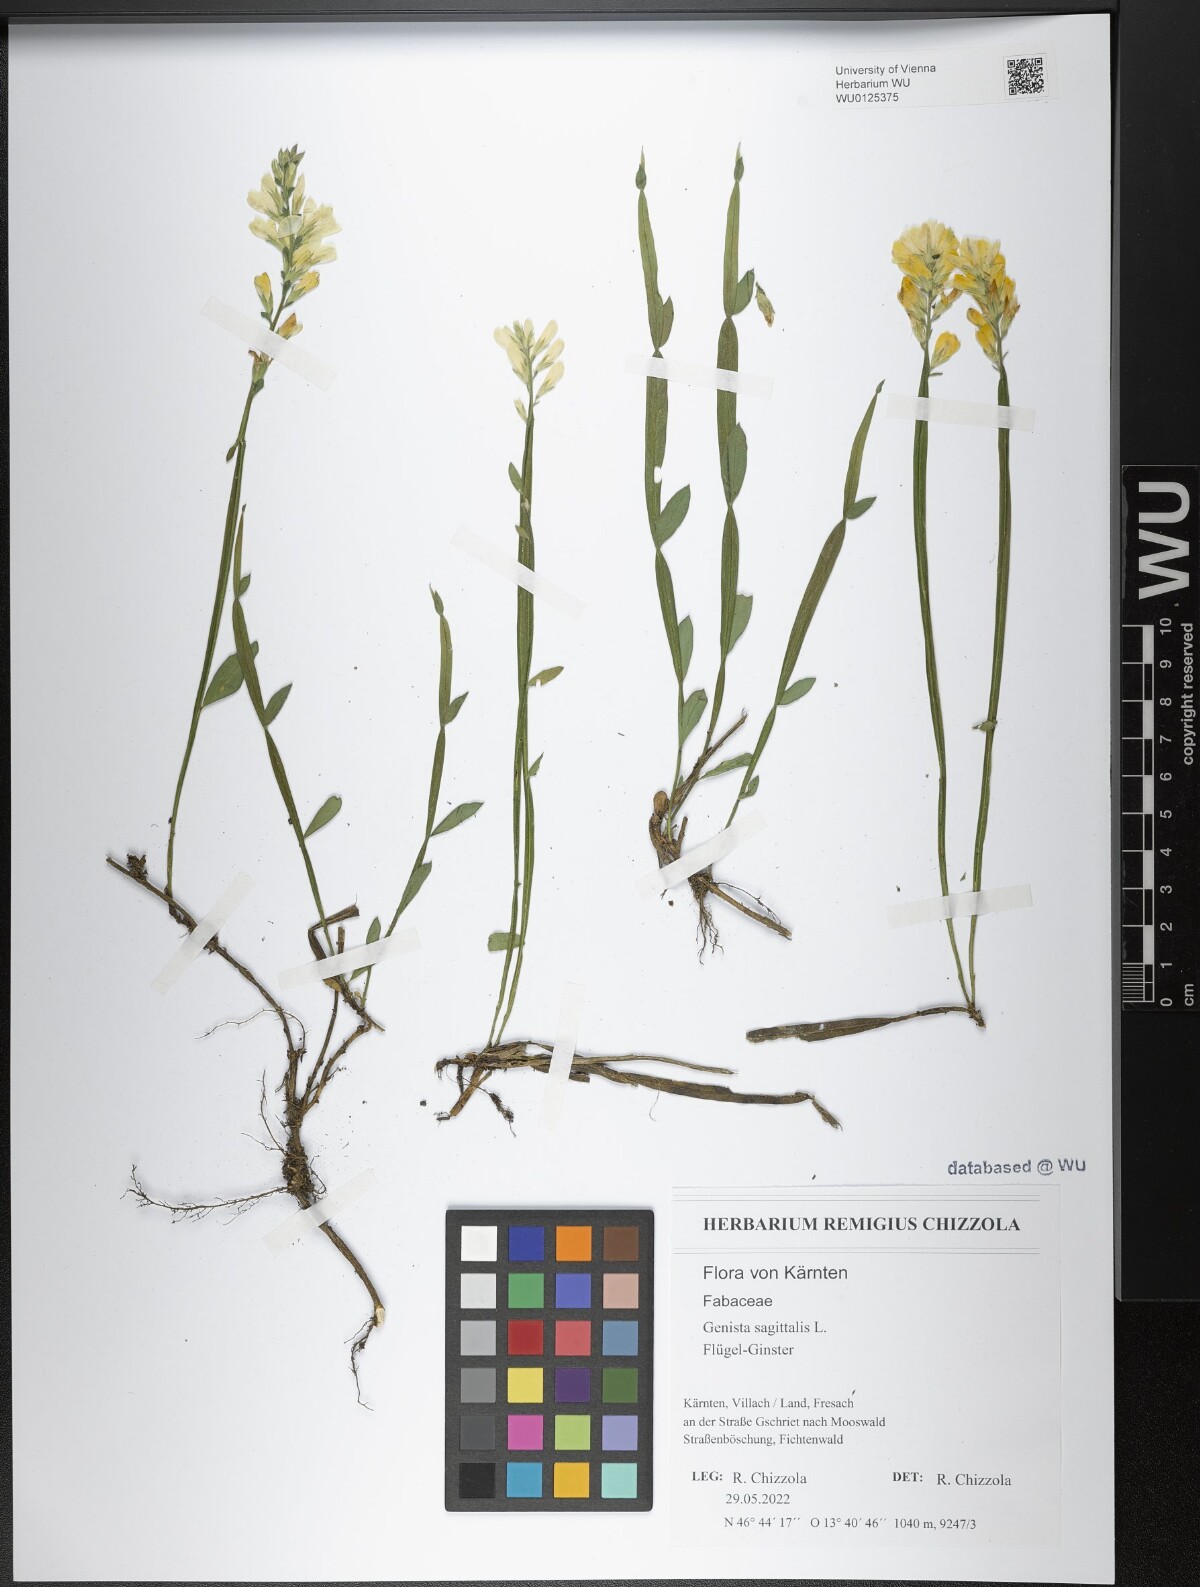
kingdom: Plantae
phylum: Tracheophyta
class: Magnoliopsida
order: Fabales
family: Fabaceae
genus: Genista
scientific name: Genista sagittalis
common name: Winged greenweed
